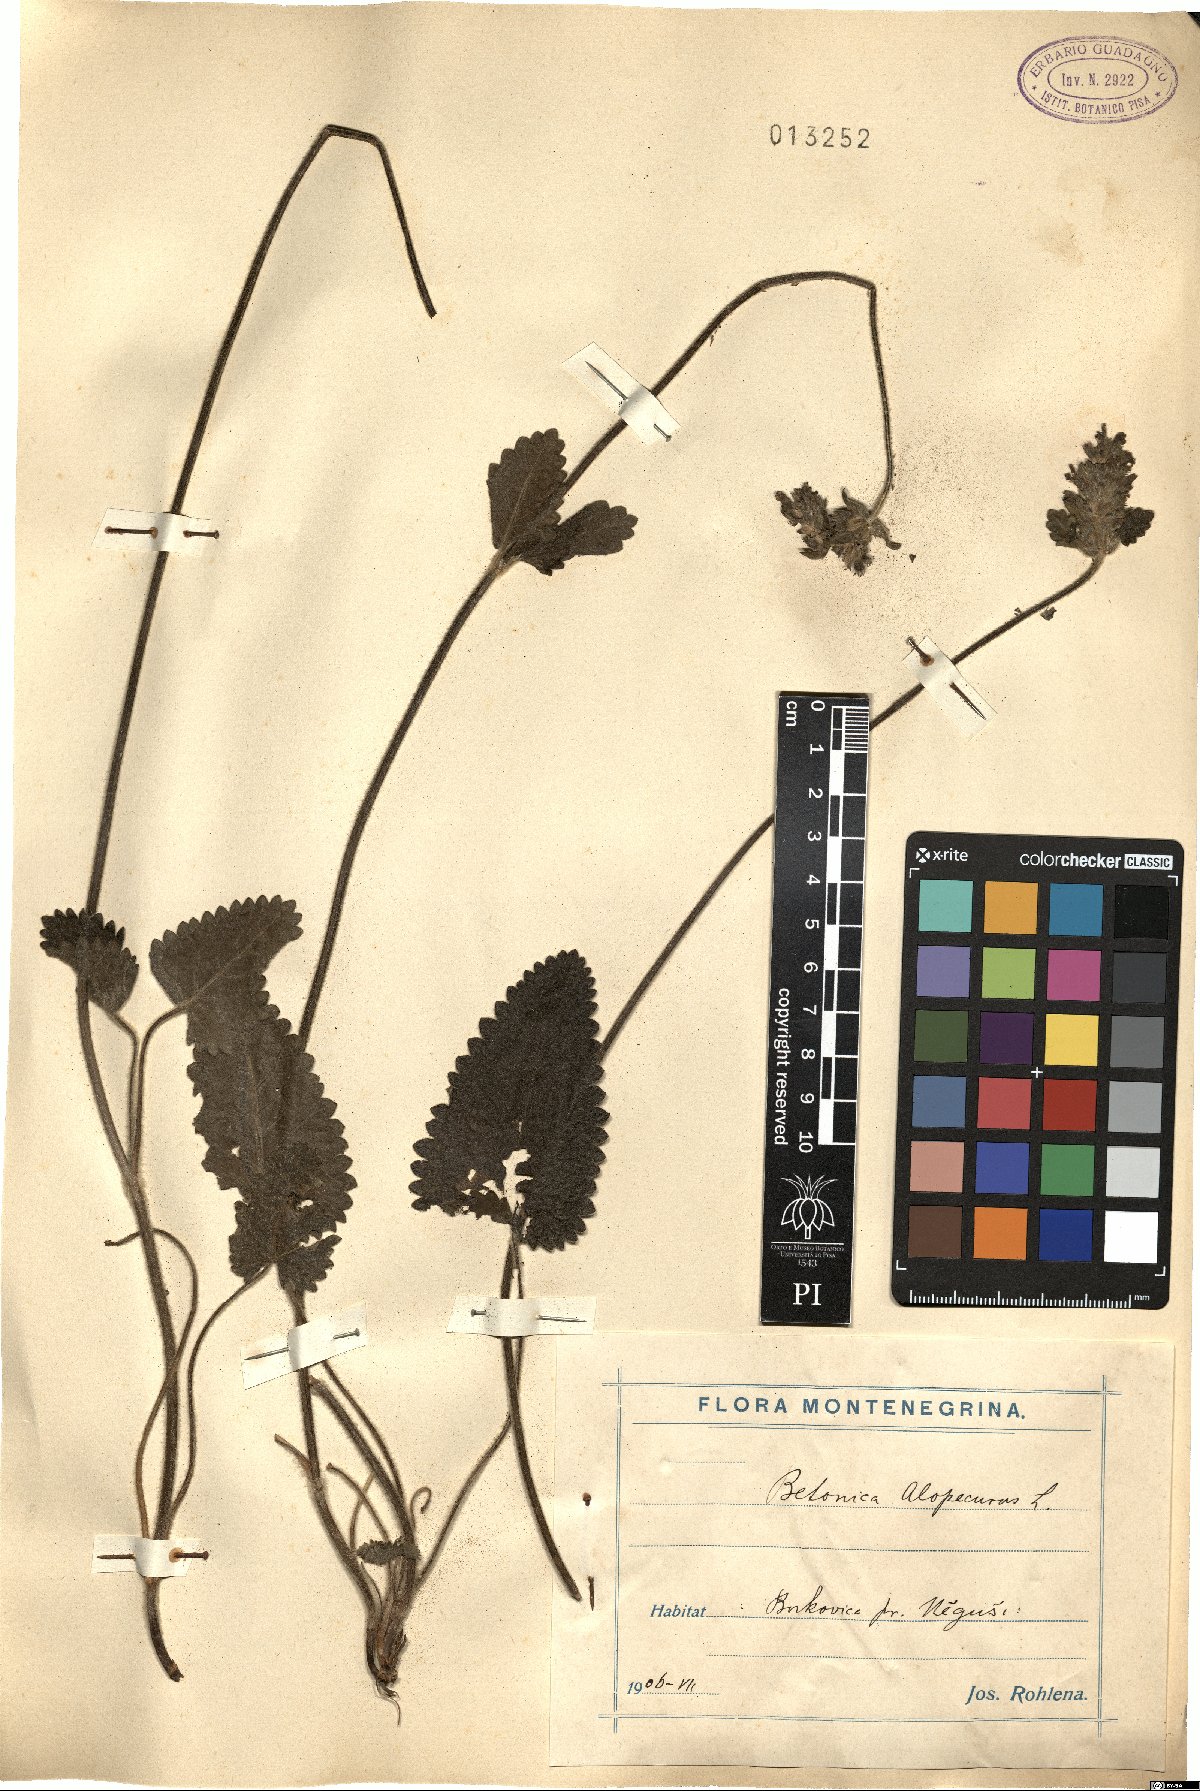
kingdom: Plantae
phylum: Tracheophyta
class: Magnoliopsida
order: Lamiales
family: Lamiaceae
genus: Betonica
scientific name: Betonica alopecuros
